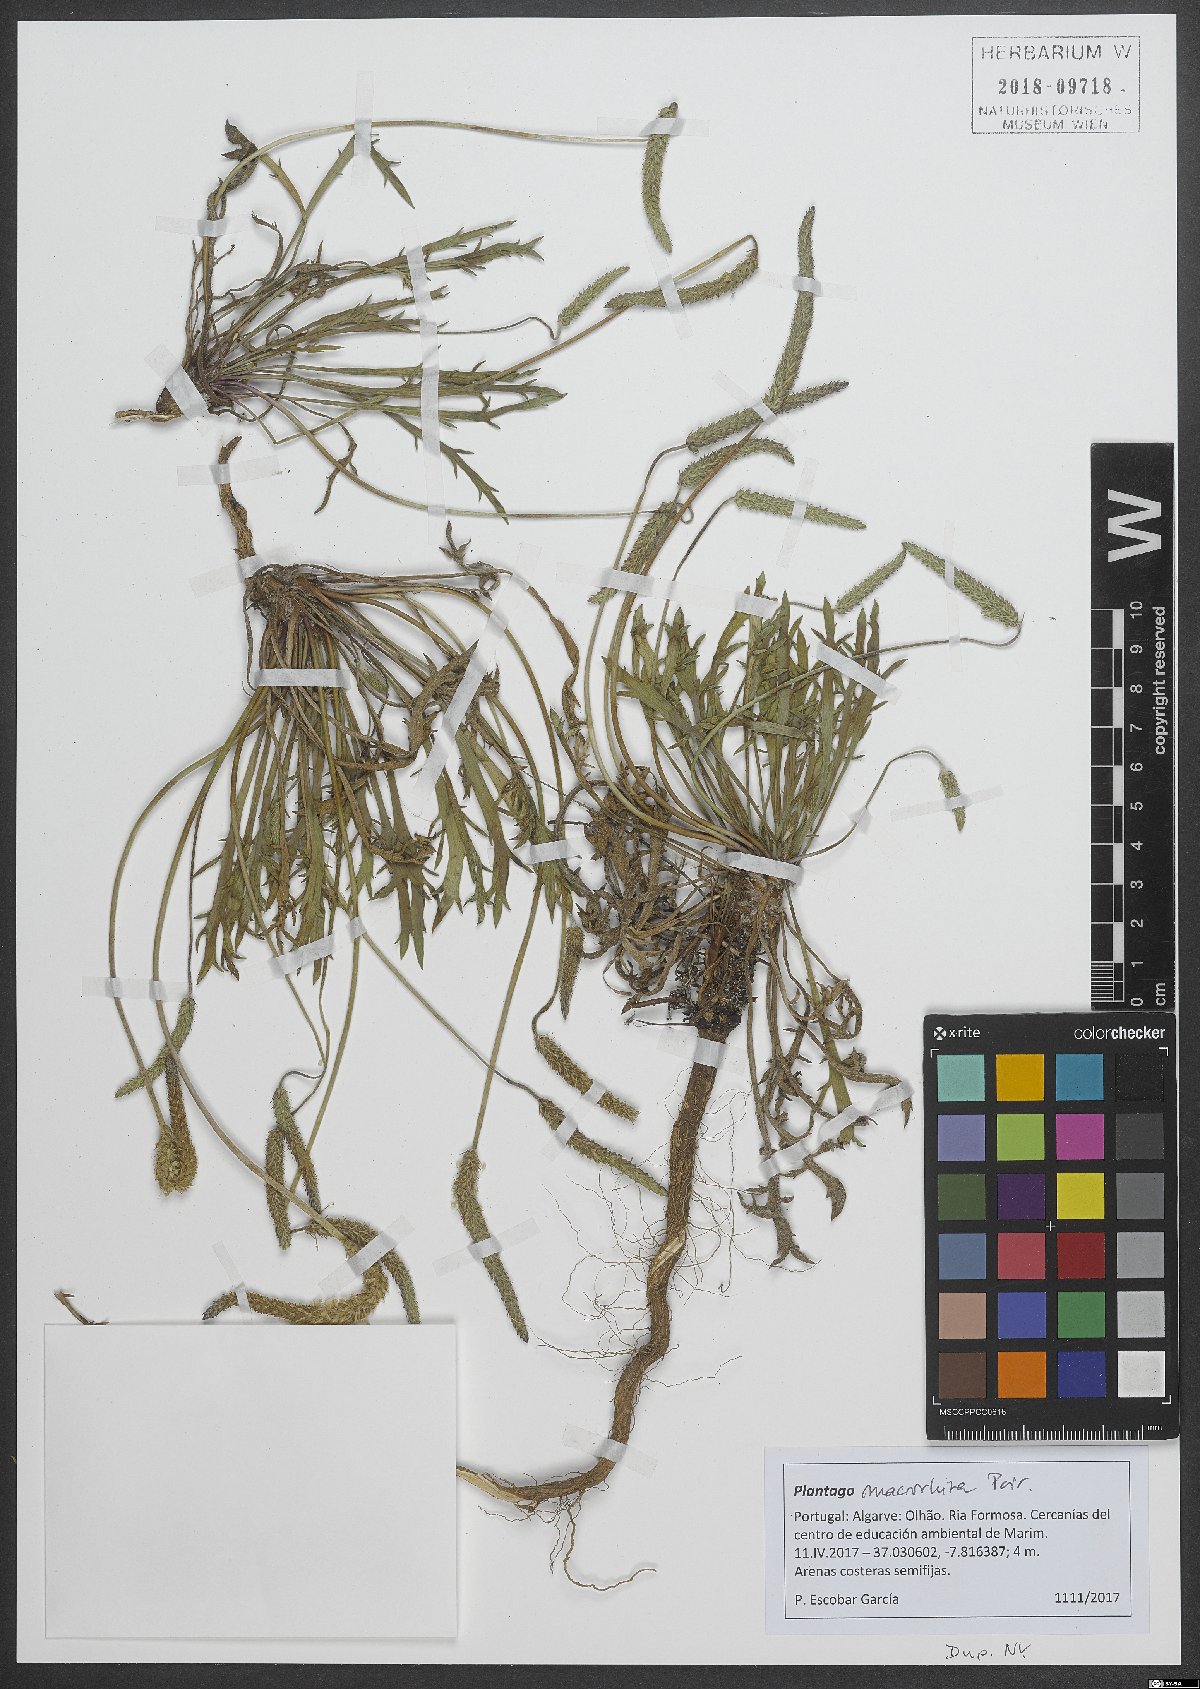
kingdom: Plantae
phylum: Tracheophyta
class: Magnoliopsida
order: Lamiales
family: Plantaginaceae
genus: Plantago
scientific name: Plantago macrorhiza
